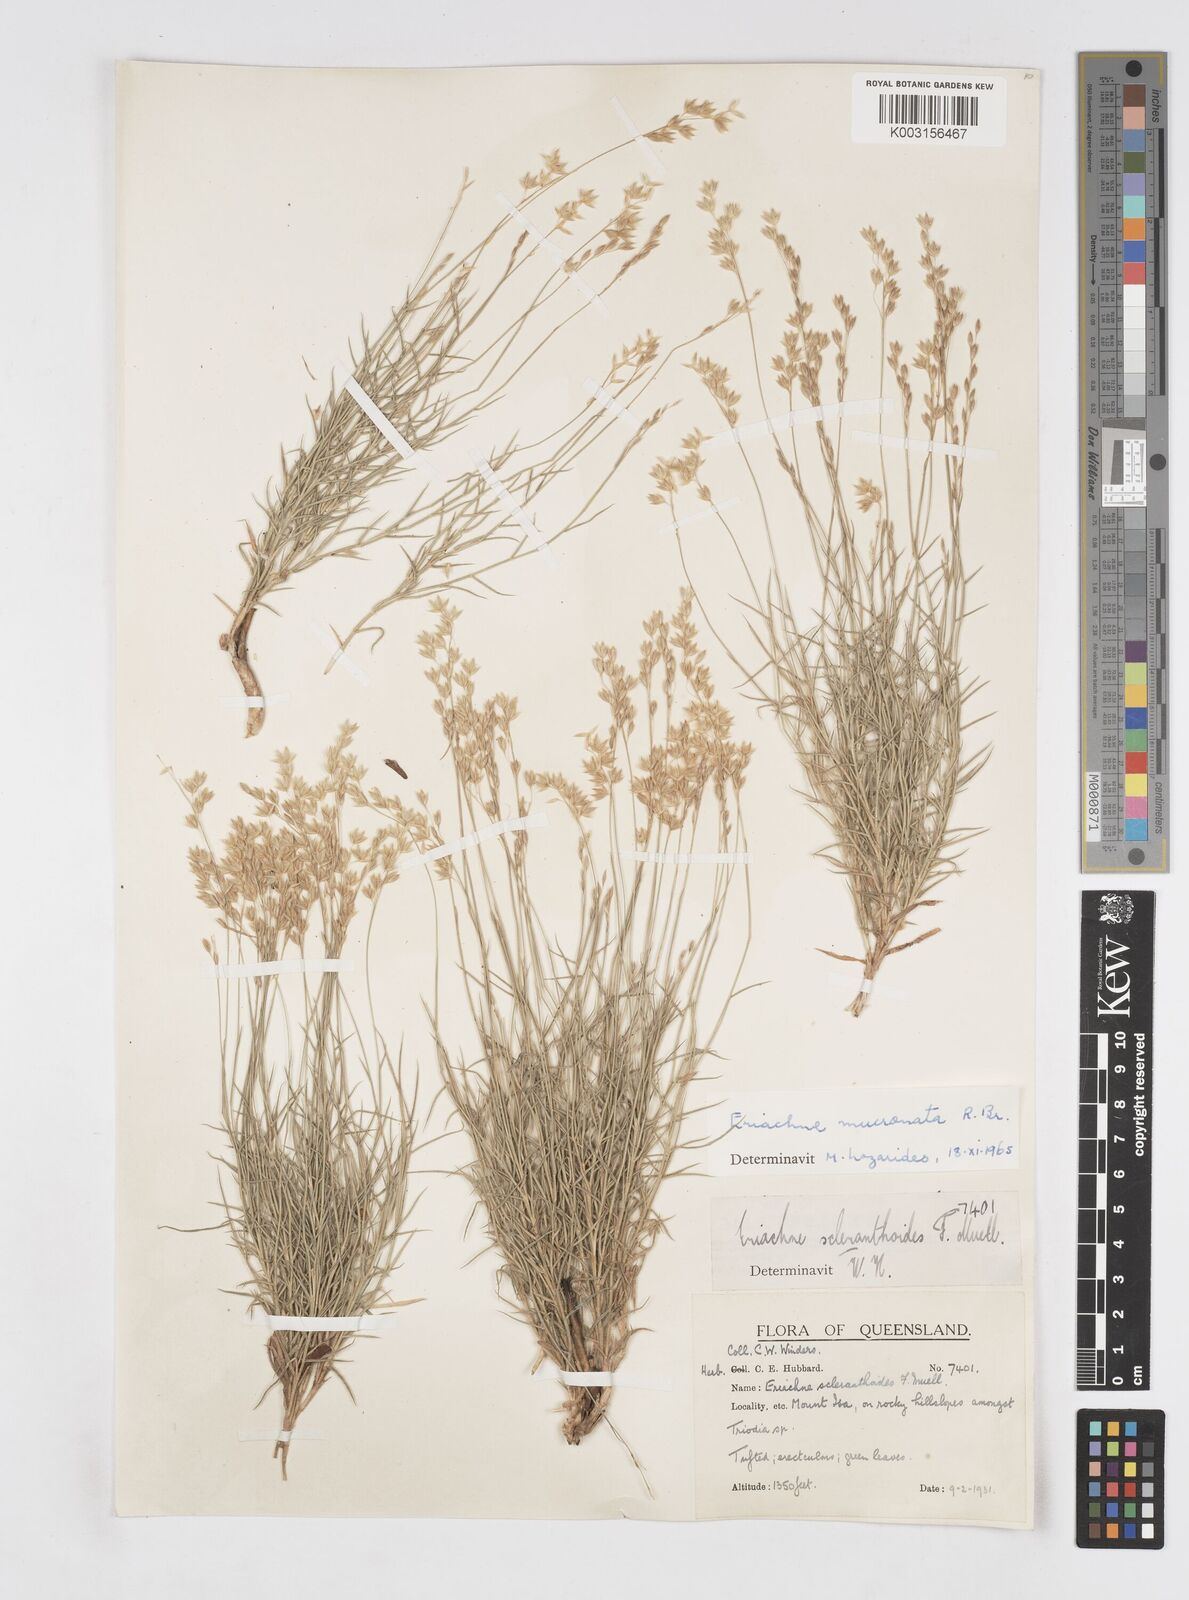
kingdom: Plantae
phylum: Tracheophyta
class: Liliopsida
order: Poales
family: Poaceae
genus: Eriachne
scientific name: Eriachne mucronata
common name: Mountain wanderrie grass
